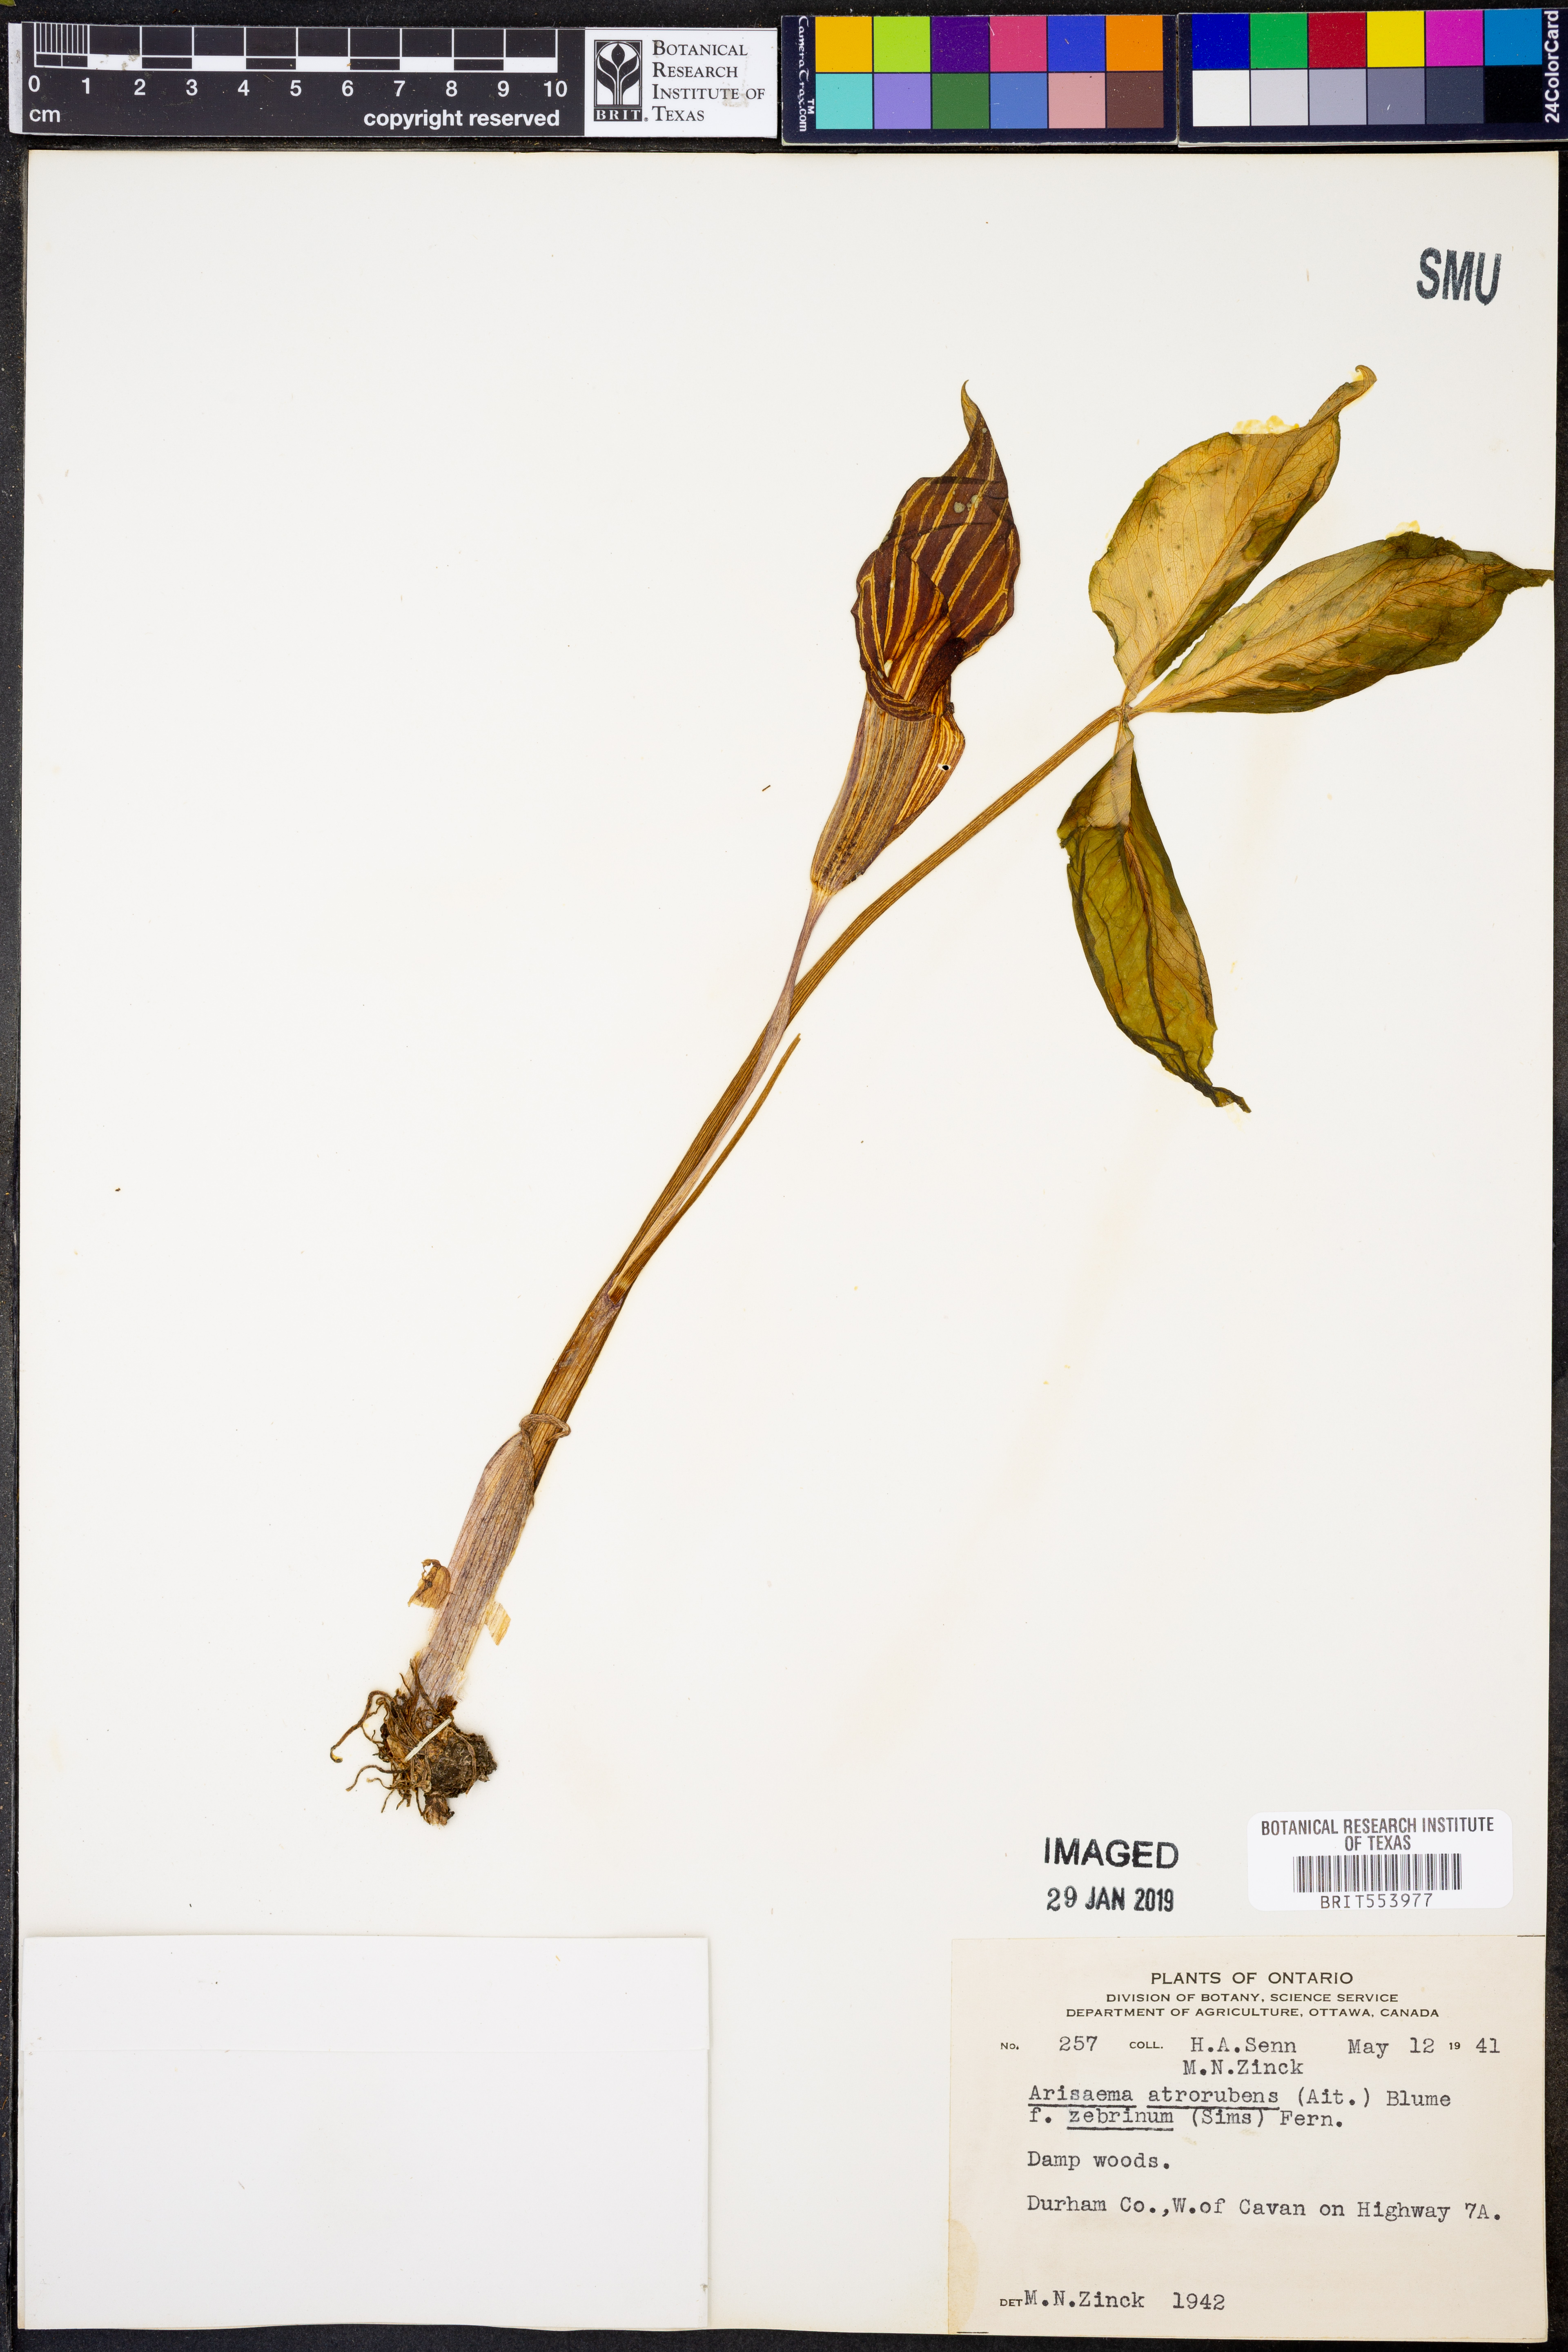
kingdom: Plantae
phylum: Tracheophyta
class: Liliopsida
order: Alismatales
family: Araceae
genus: Arisaema
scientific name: Arisaema triphyllum
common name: Jack-in-the-pulpit
